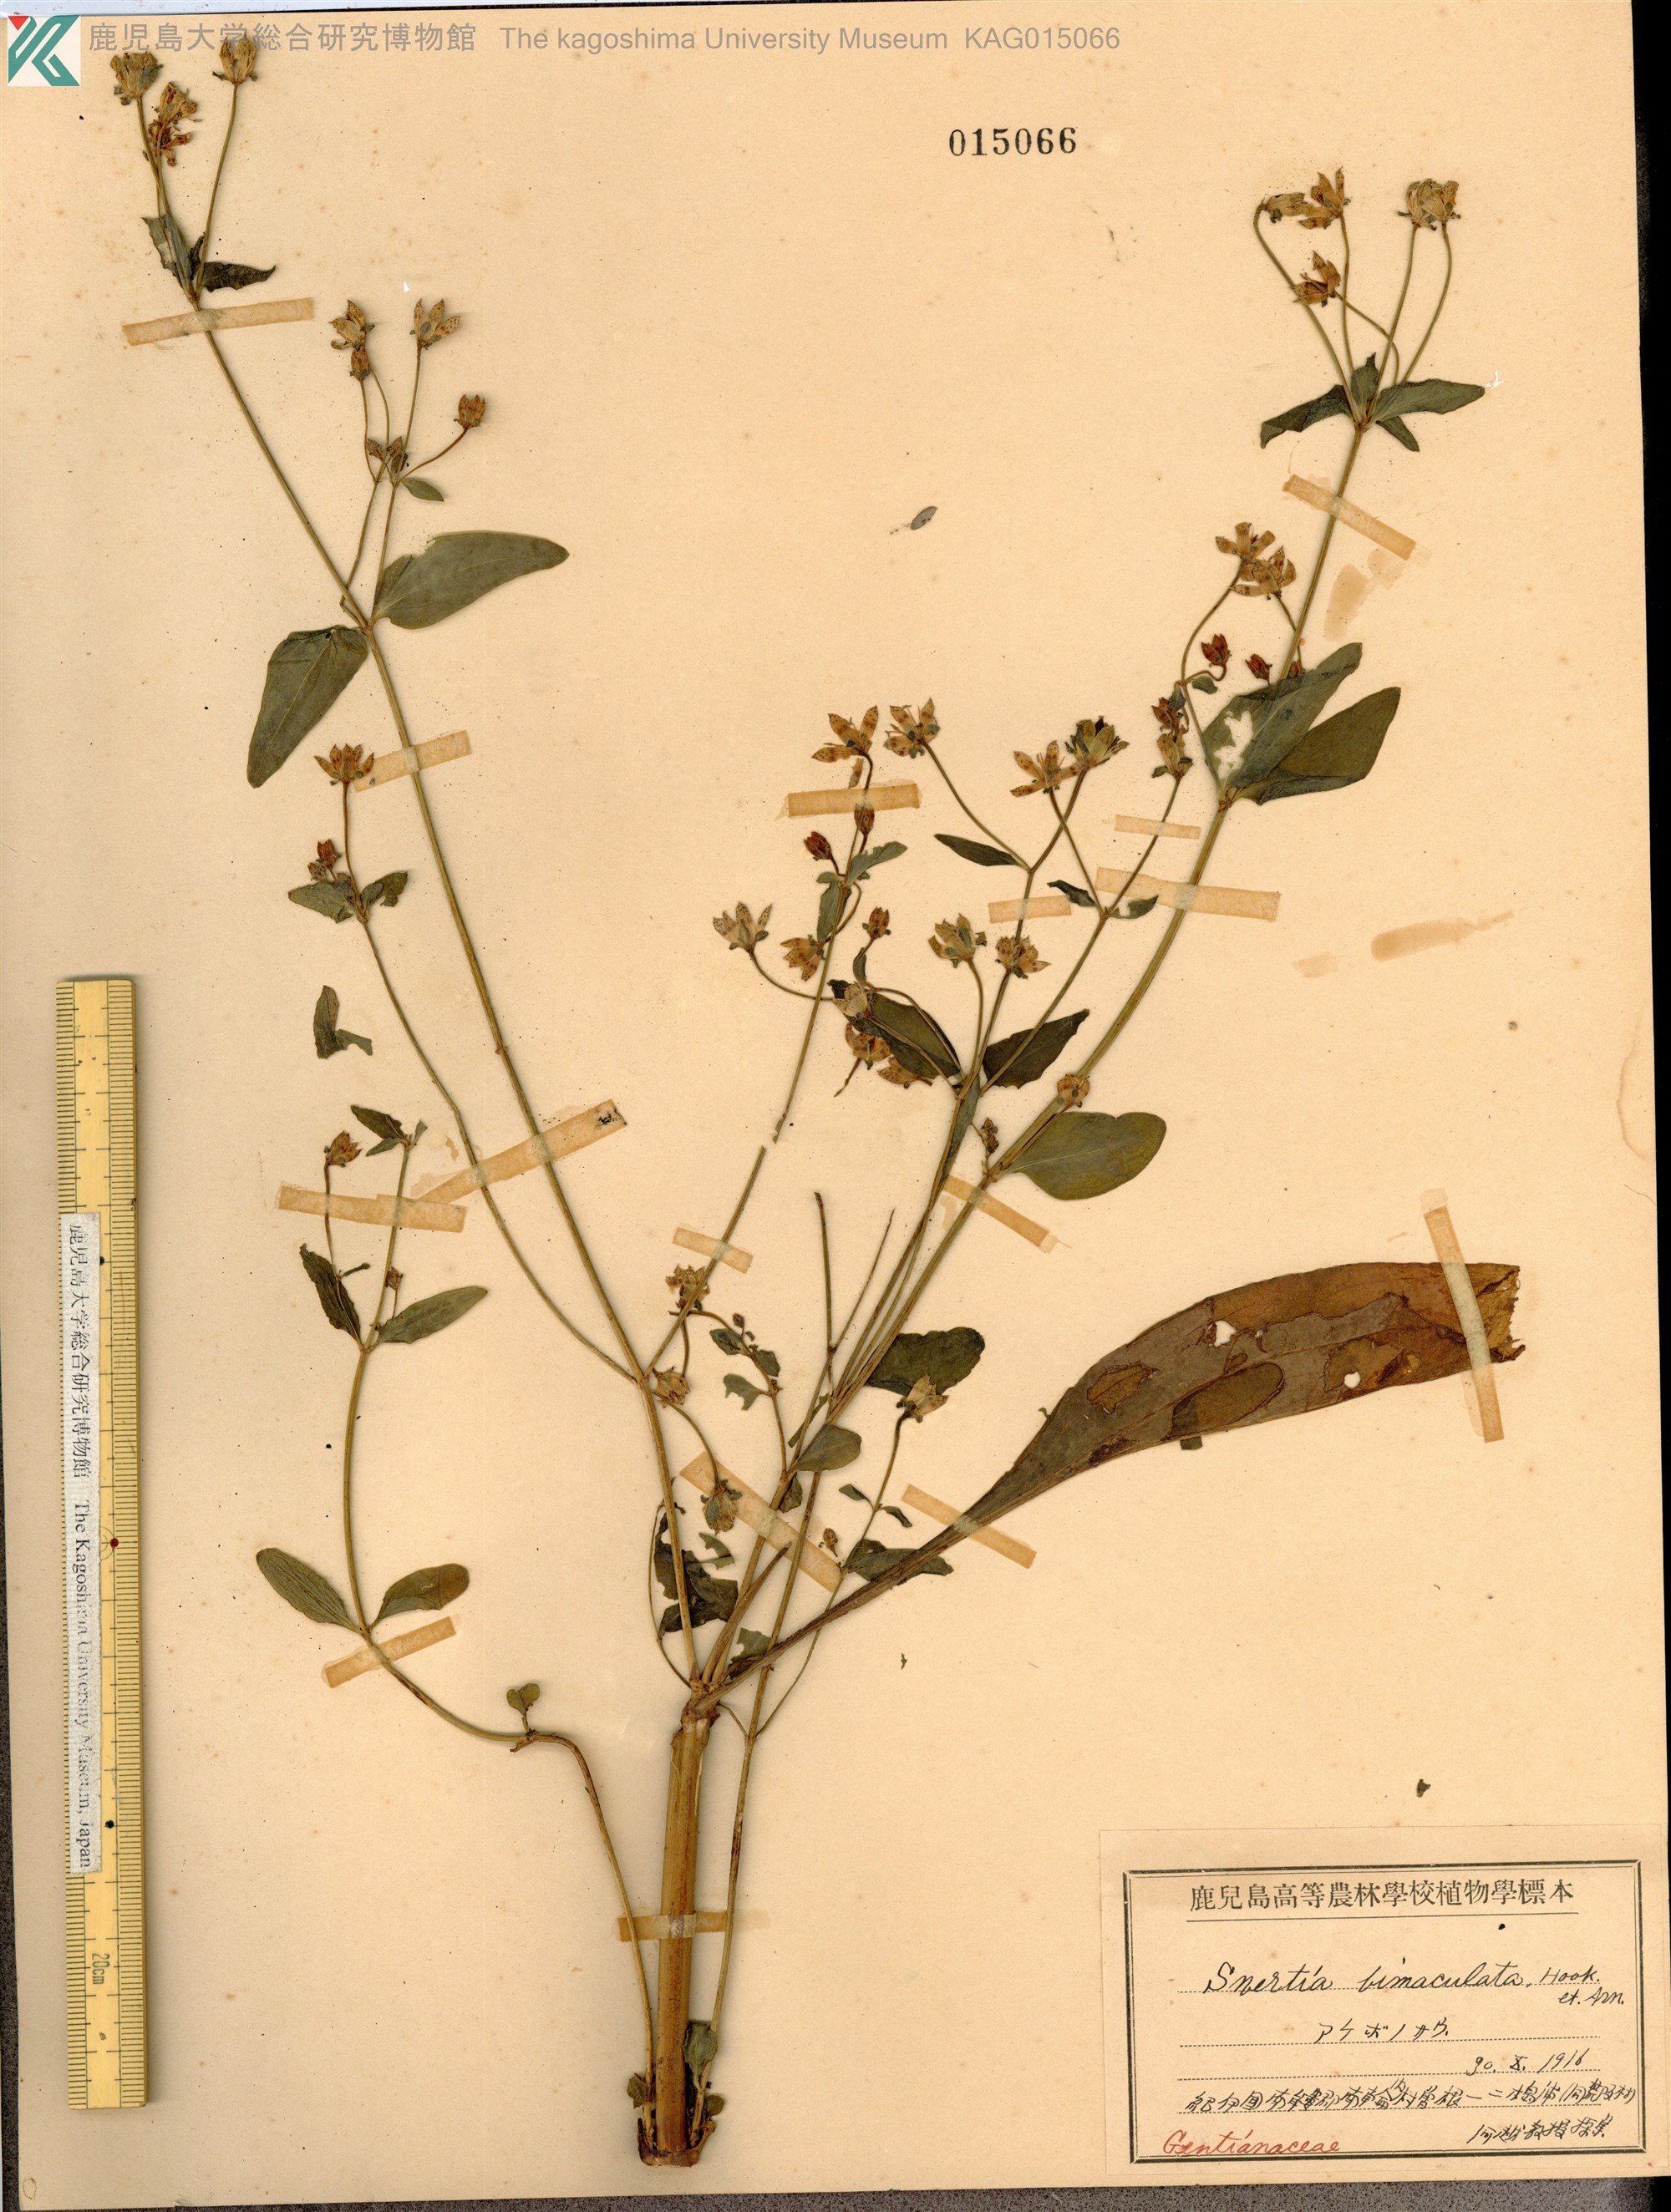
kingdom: Plantae
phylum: Tracheophyta
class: Magnoliopsida
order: Gentianales
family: Gentianaceae
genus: Swertia
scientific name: Swertia bimaculata
